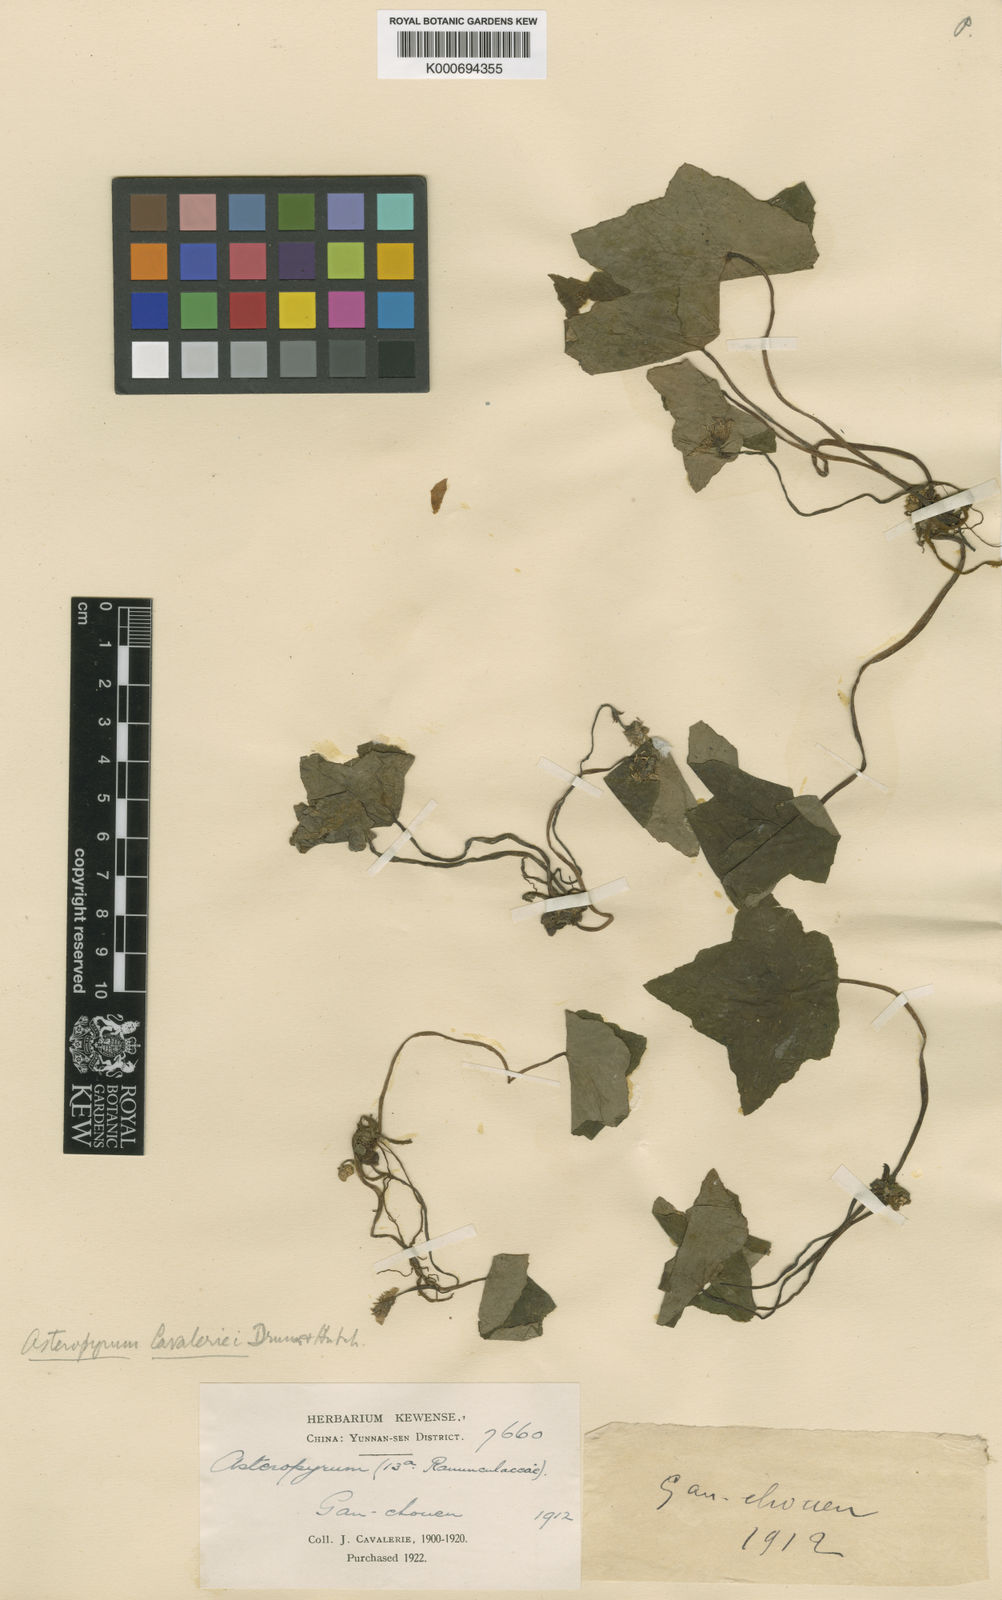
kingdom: Plantae
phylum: Tracheophyta
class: Magnoliopsida
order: Ranunculales
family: Ranunculaceae
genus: Asteropyrum
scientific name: Asteropyrum cavaleriei
